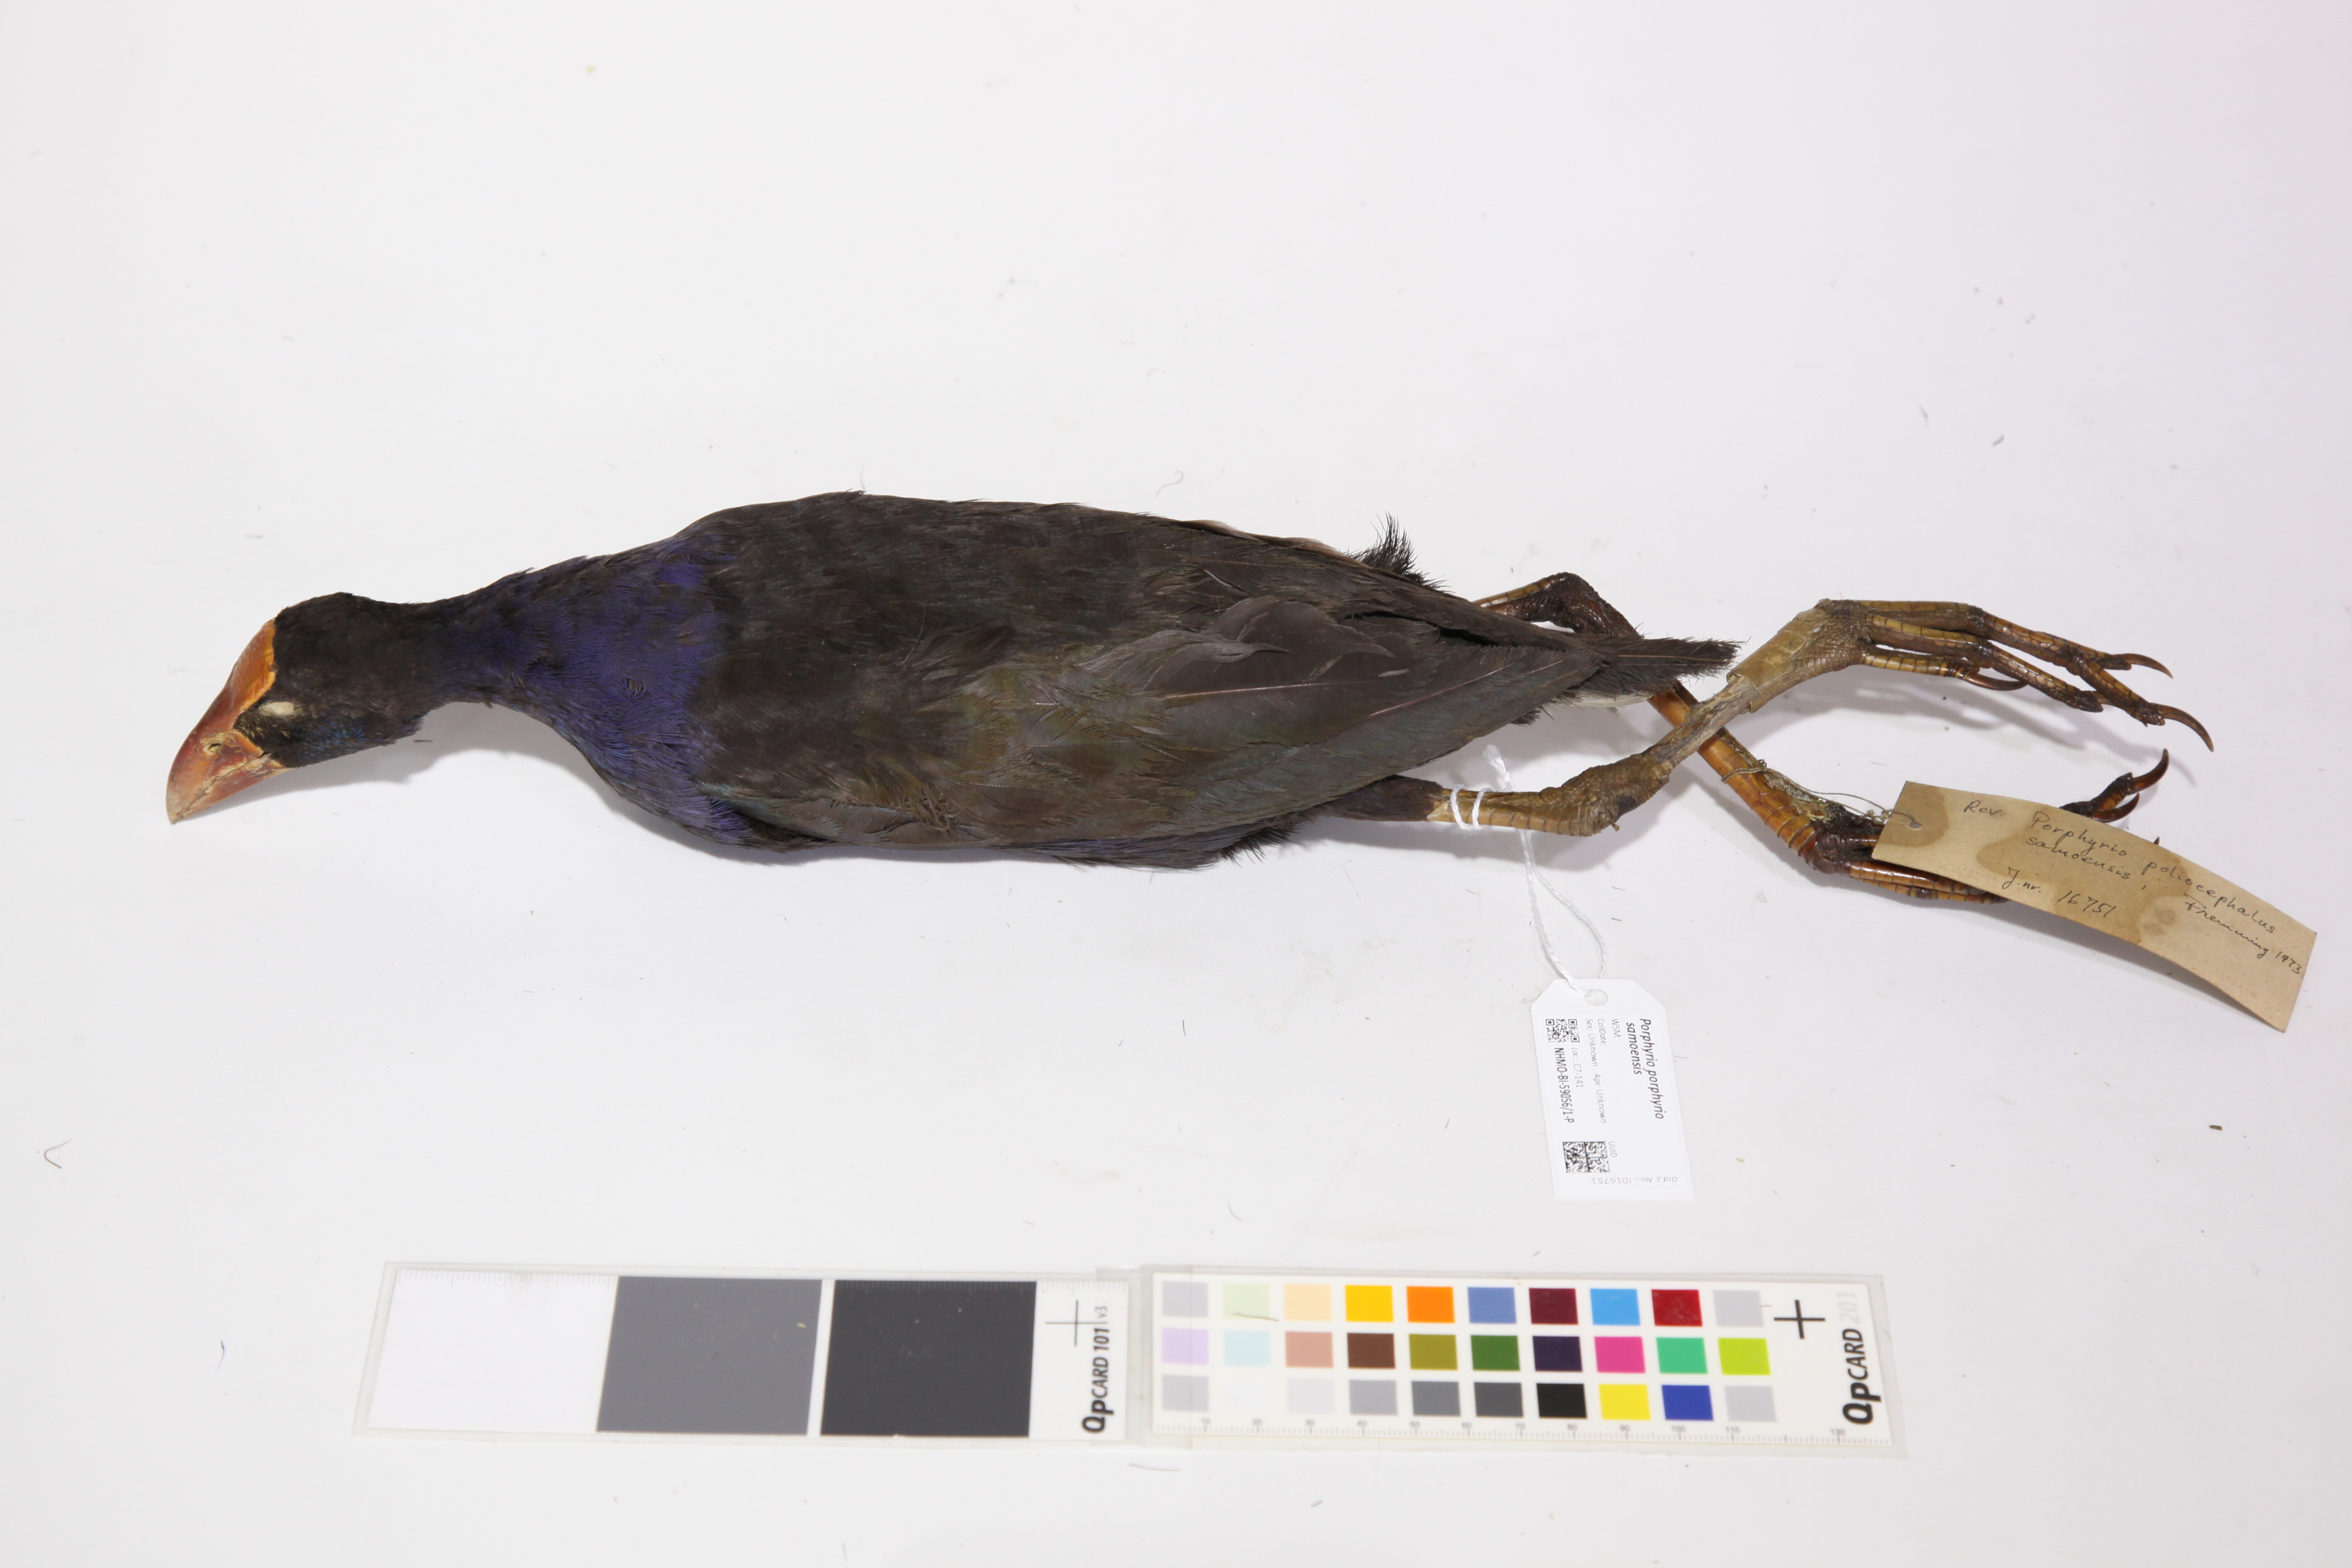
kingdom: Animalia
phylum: Chordata
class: Aves
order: Gruiformes
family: Rallidae
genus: Porphyrio
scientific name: Porphyrio melanotus
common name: Australasian swamphen
